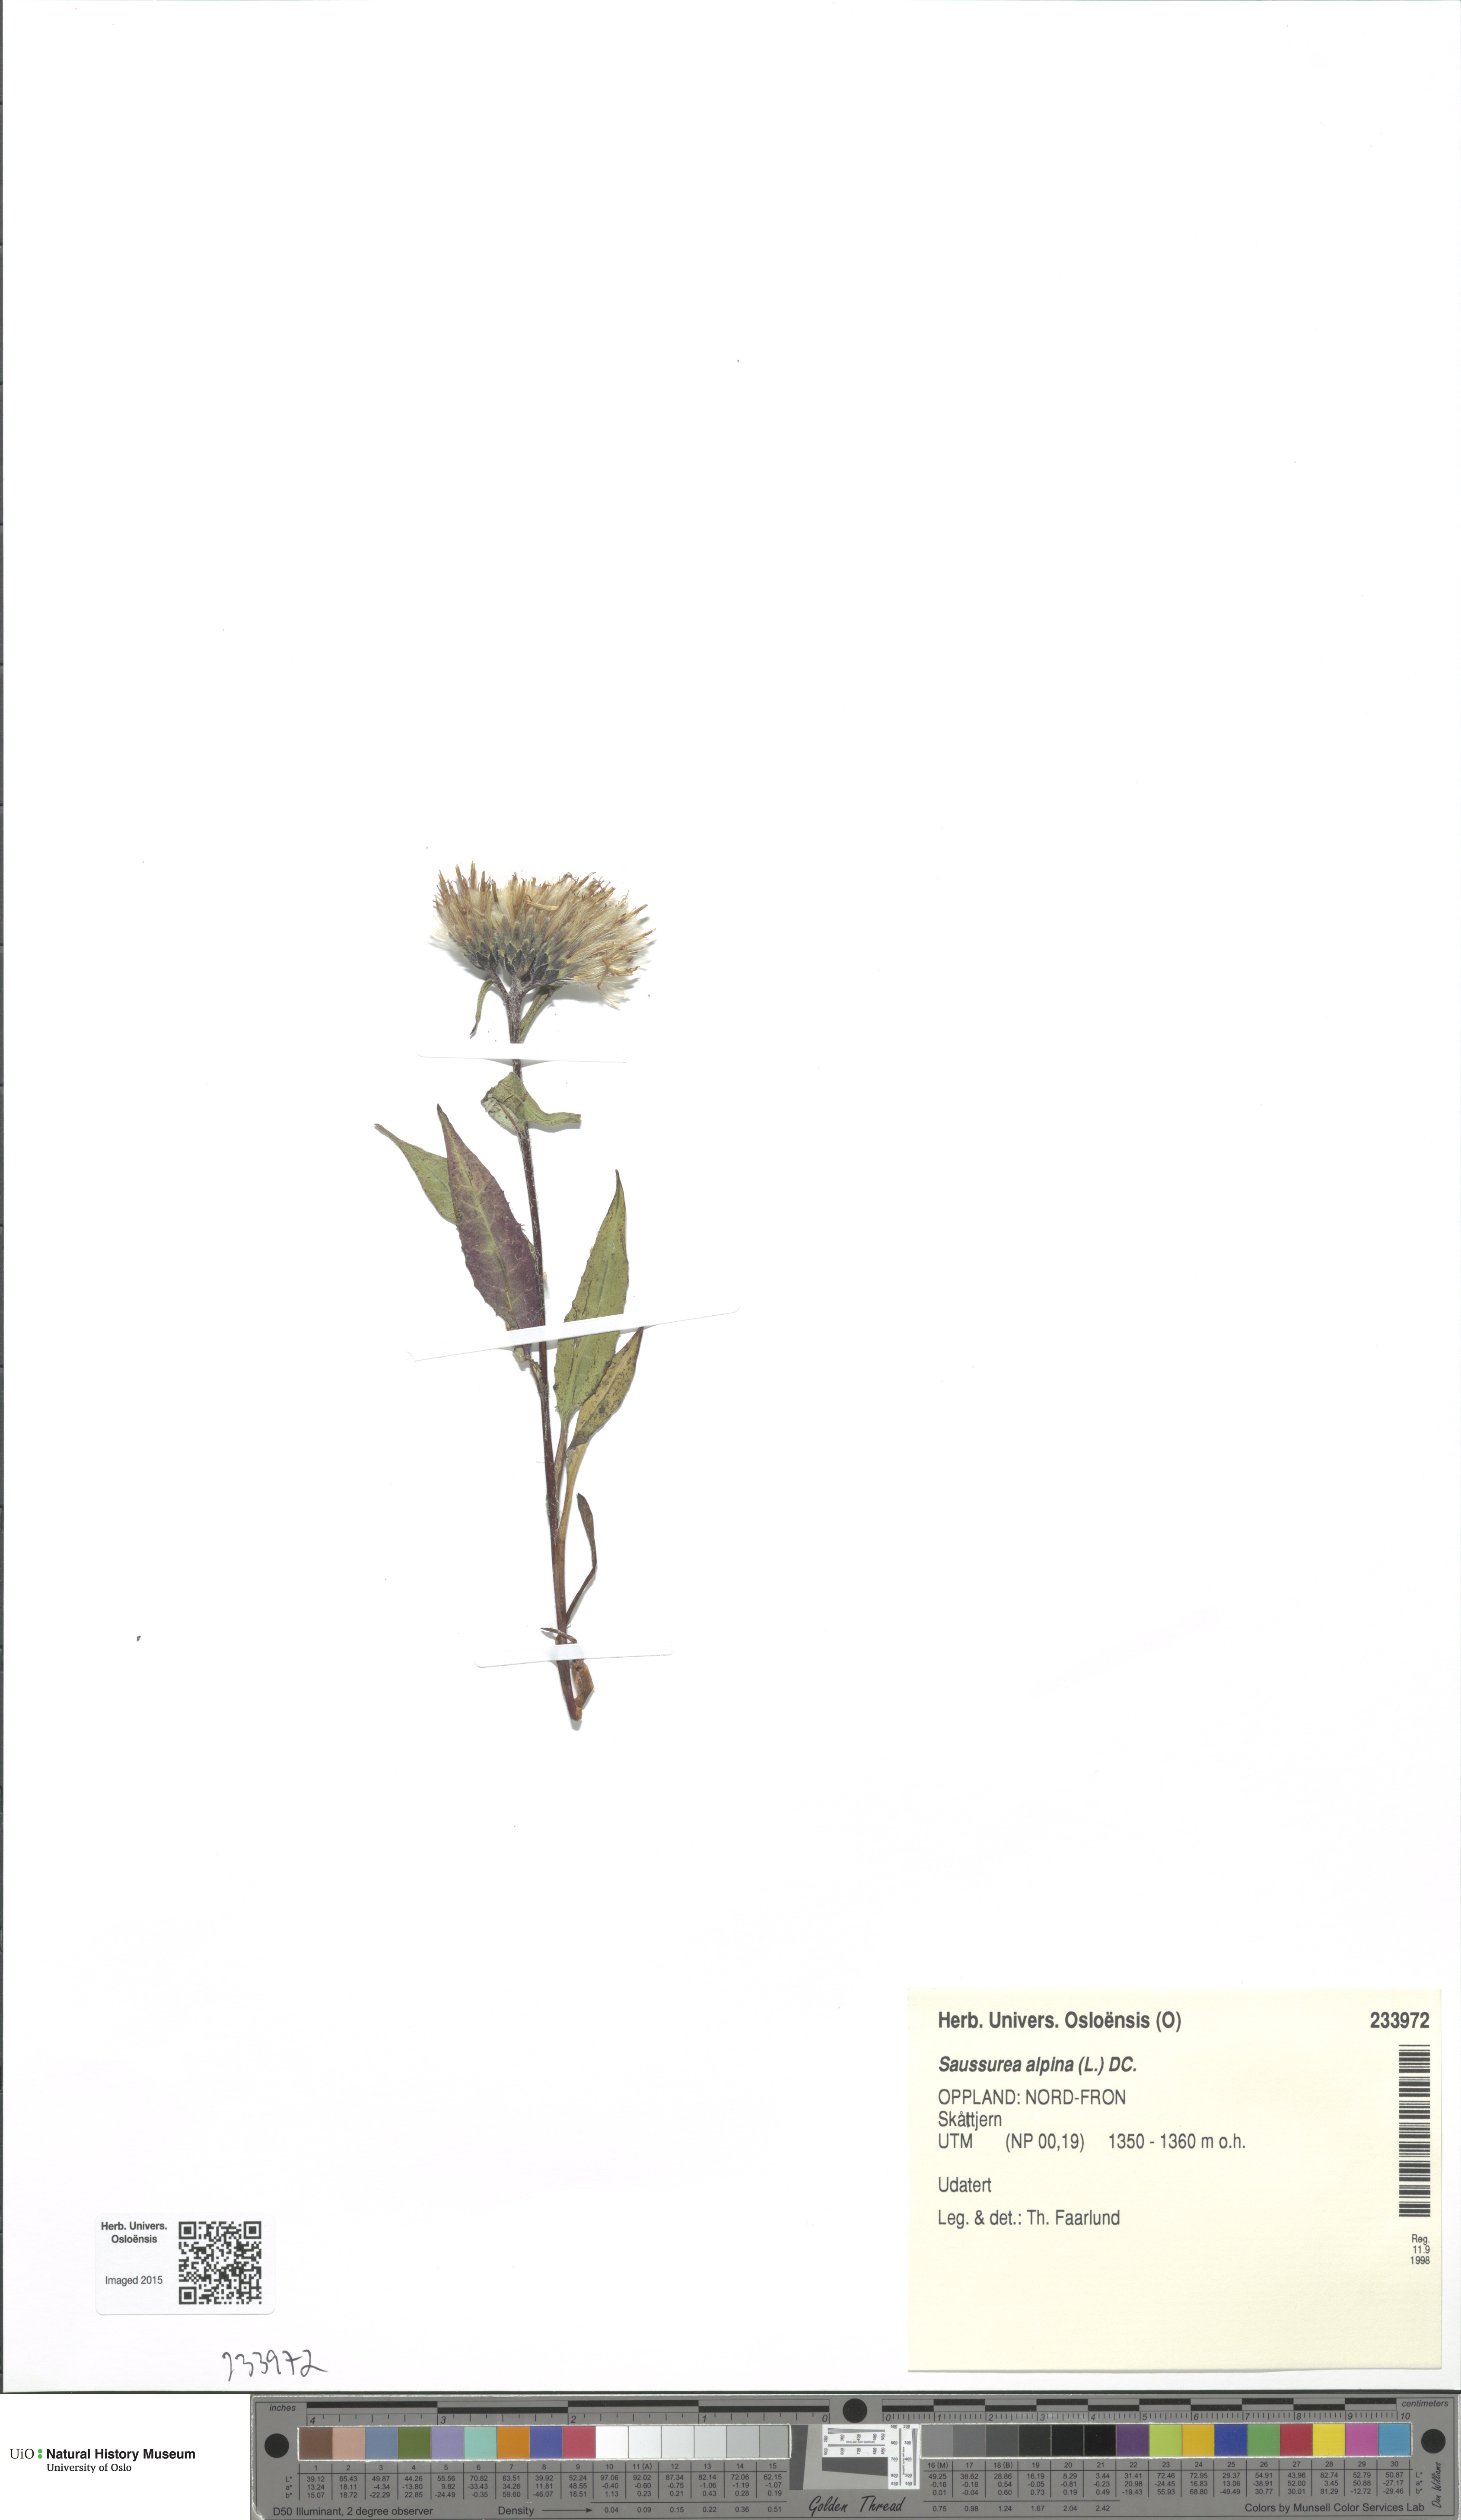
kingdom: Plantae
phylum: Tracheophyta
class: Magnoliopsida
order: Asterales
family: Asteraceae
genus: Saussurea
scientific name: Saussurea alpina
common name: Alpine saw-wort
